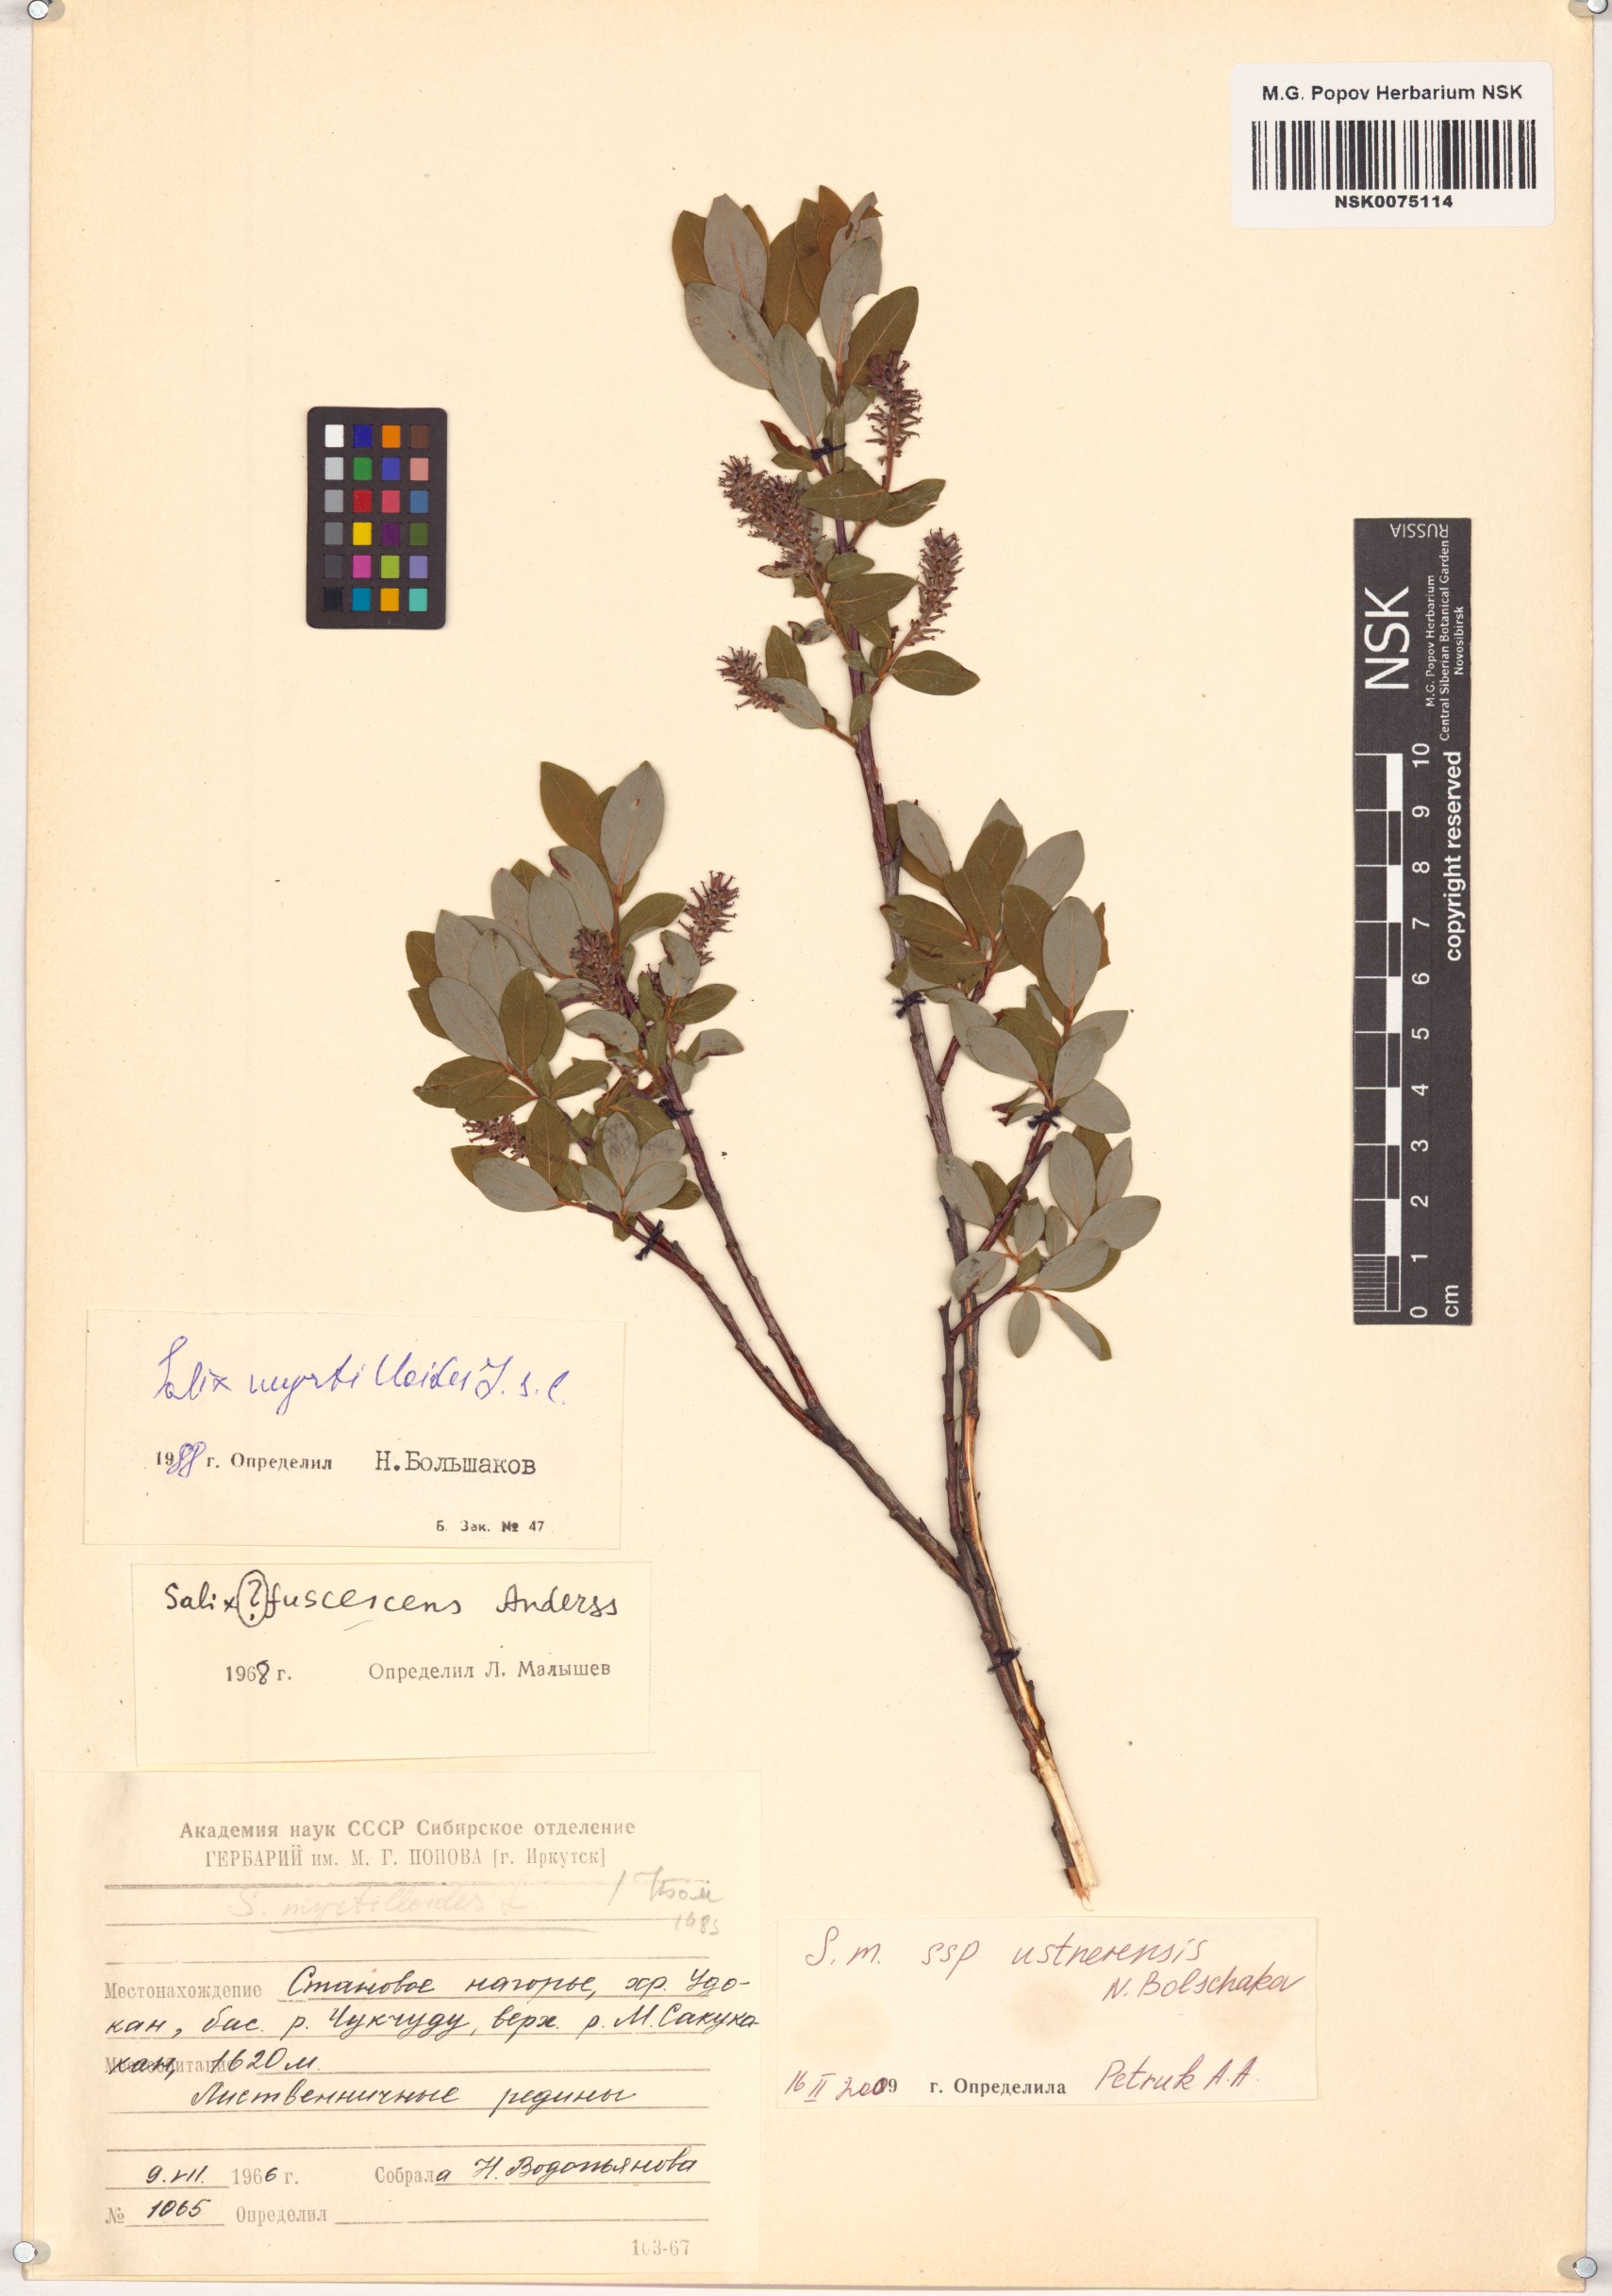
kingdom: Plantae
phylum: Tracheophyta
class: Magnoliopsida
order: Malpighiales
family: Salicaceae
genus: Salix
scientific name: Salix ustnerensis
